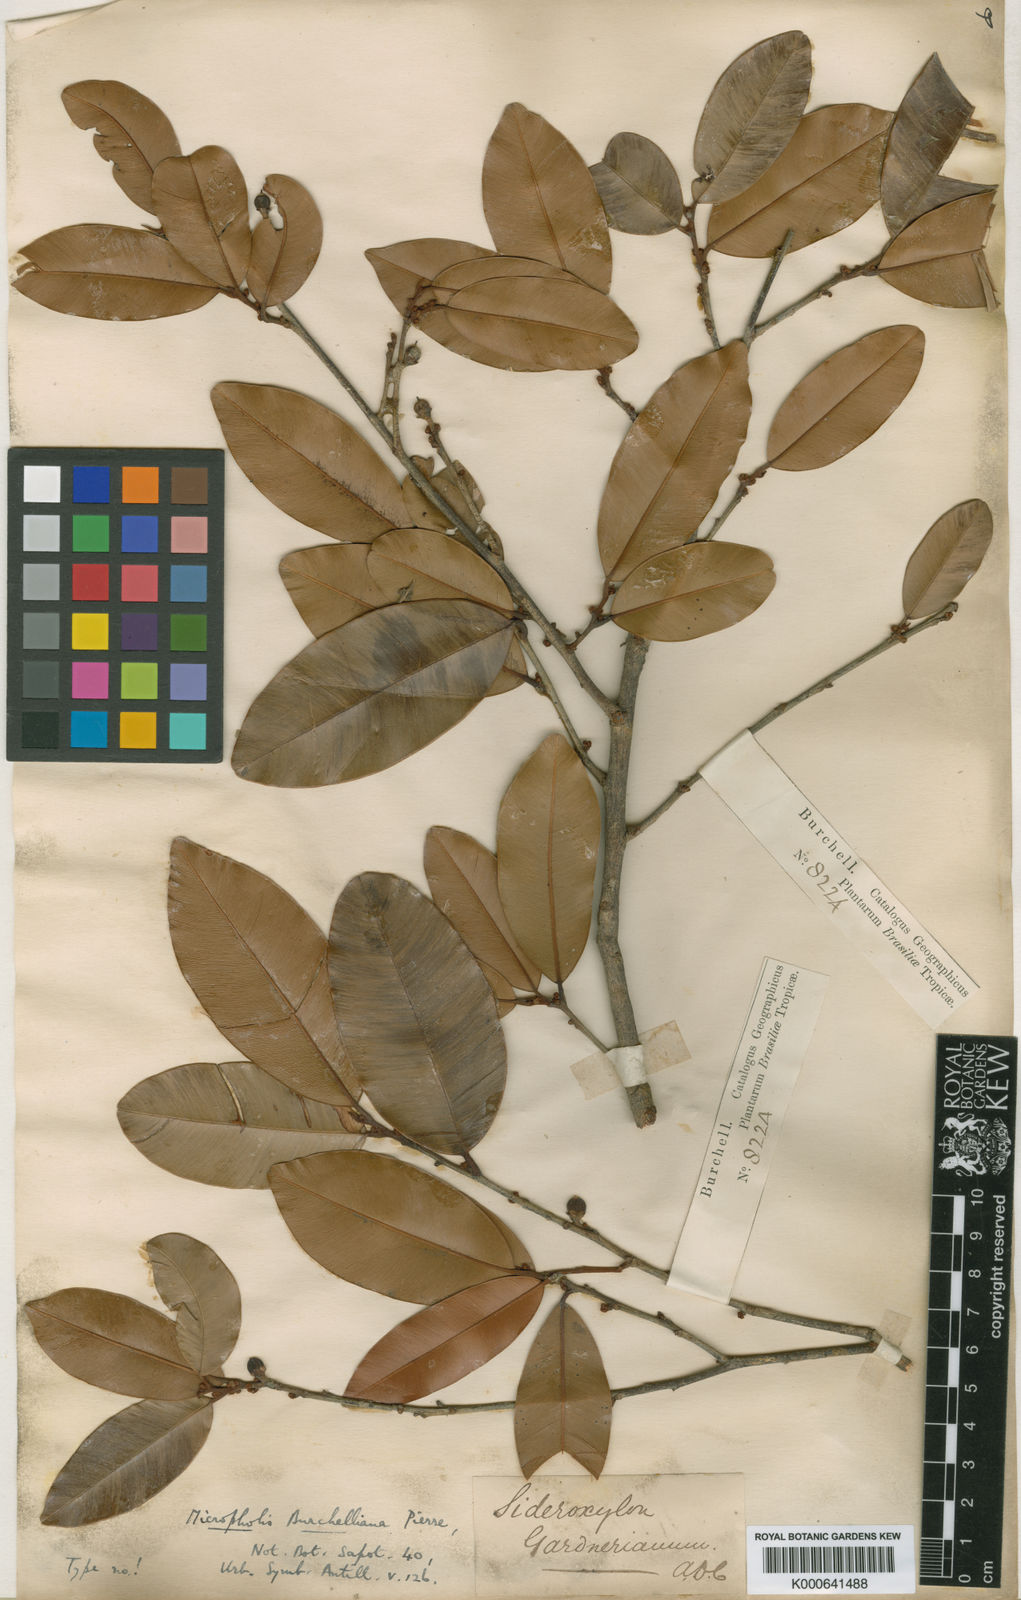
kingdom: Plantae
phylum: Tracheophyta
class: Magnoliopsida
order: Ericales
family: Sapotaceae
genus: Micropholis
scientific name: Micropholis gardneriana
